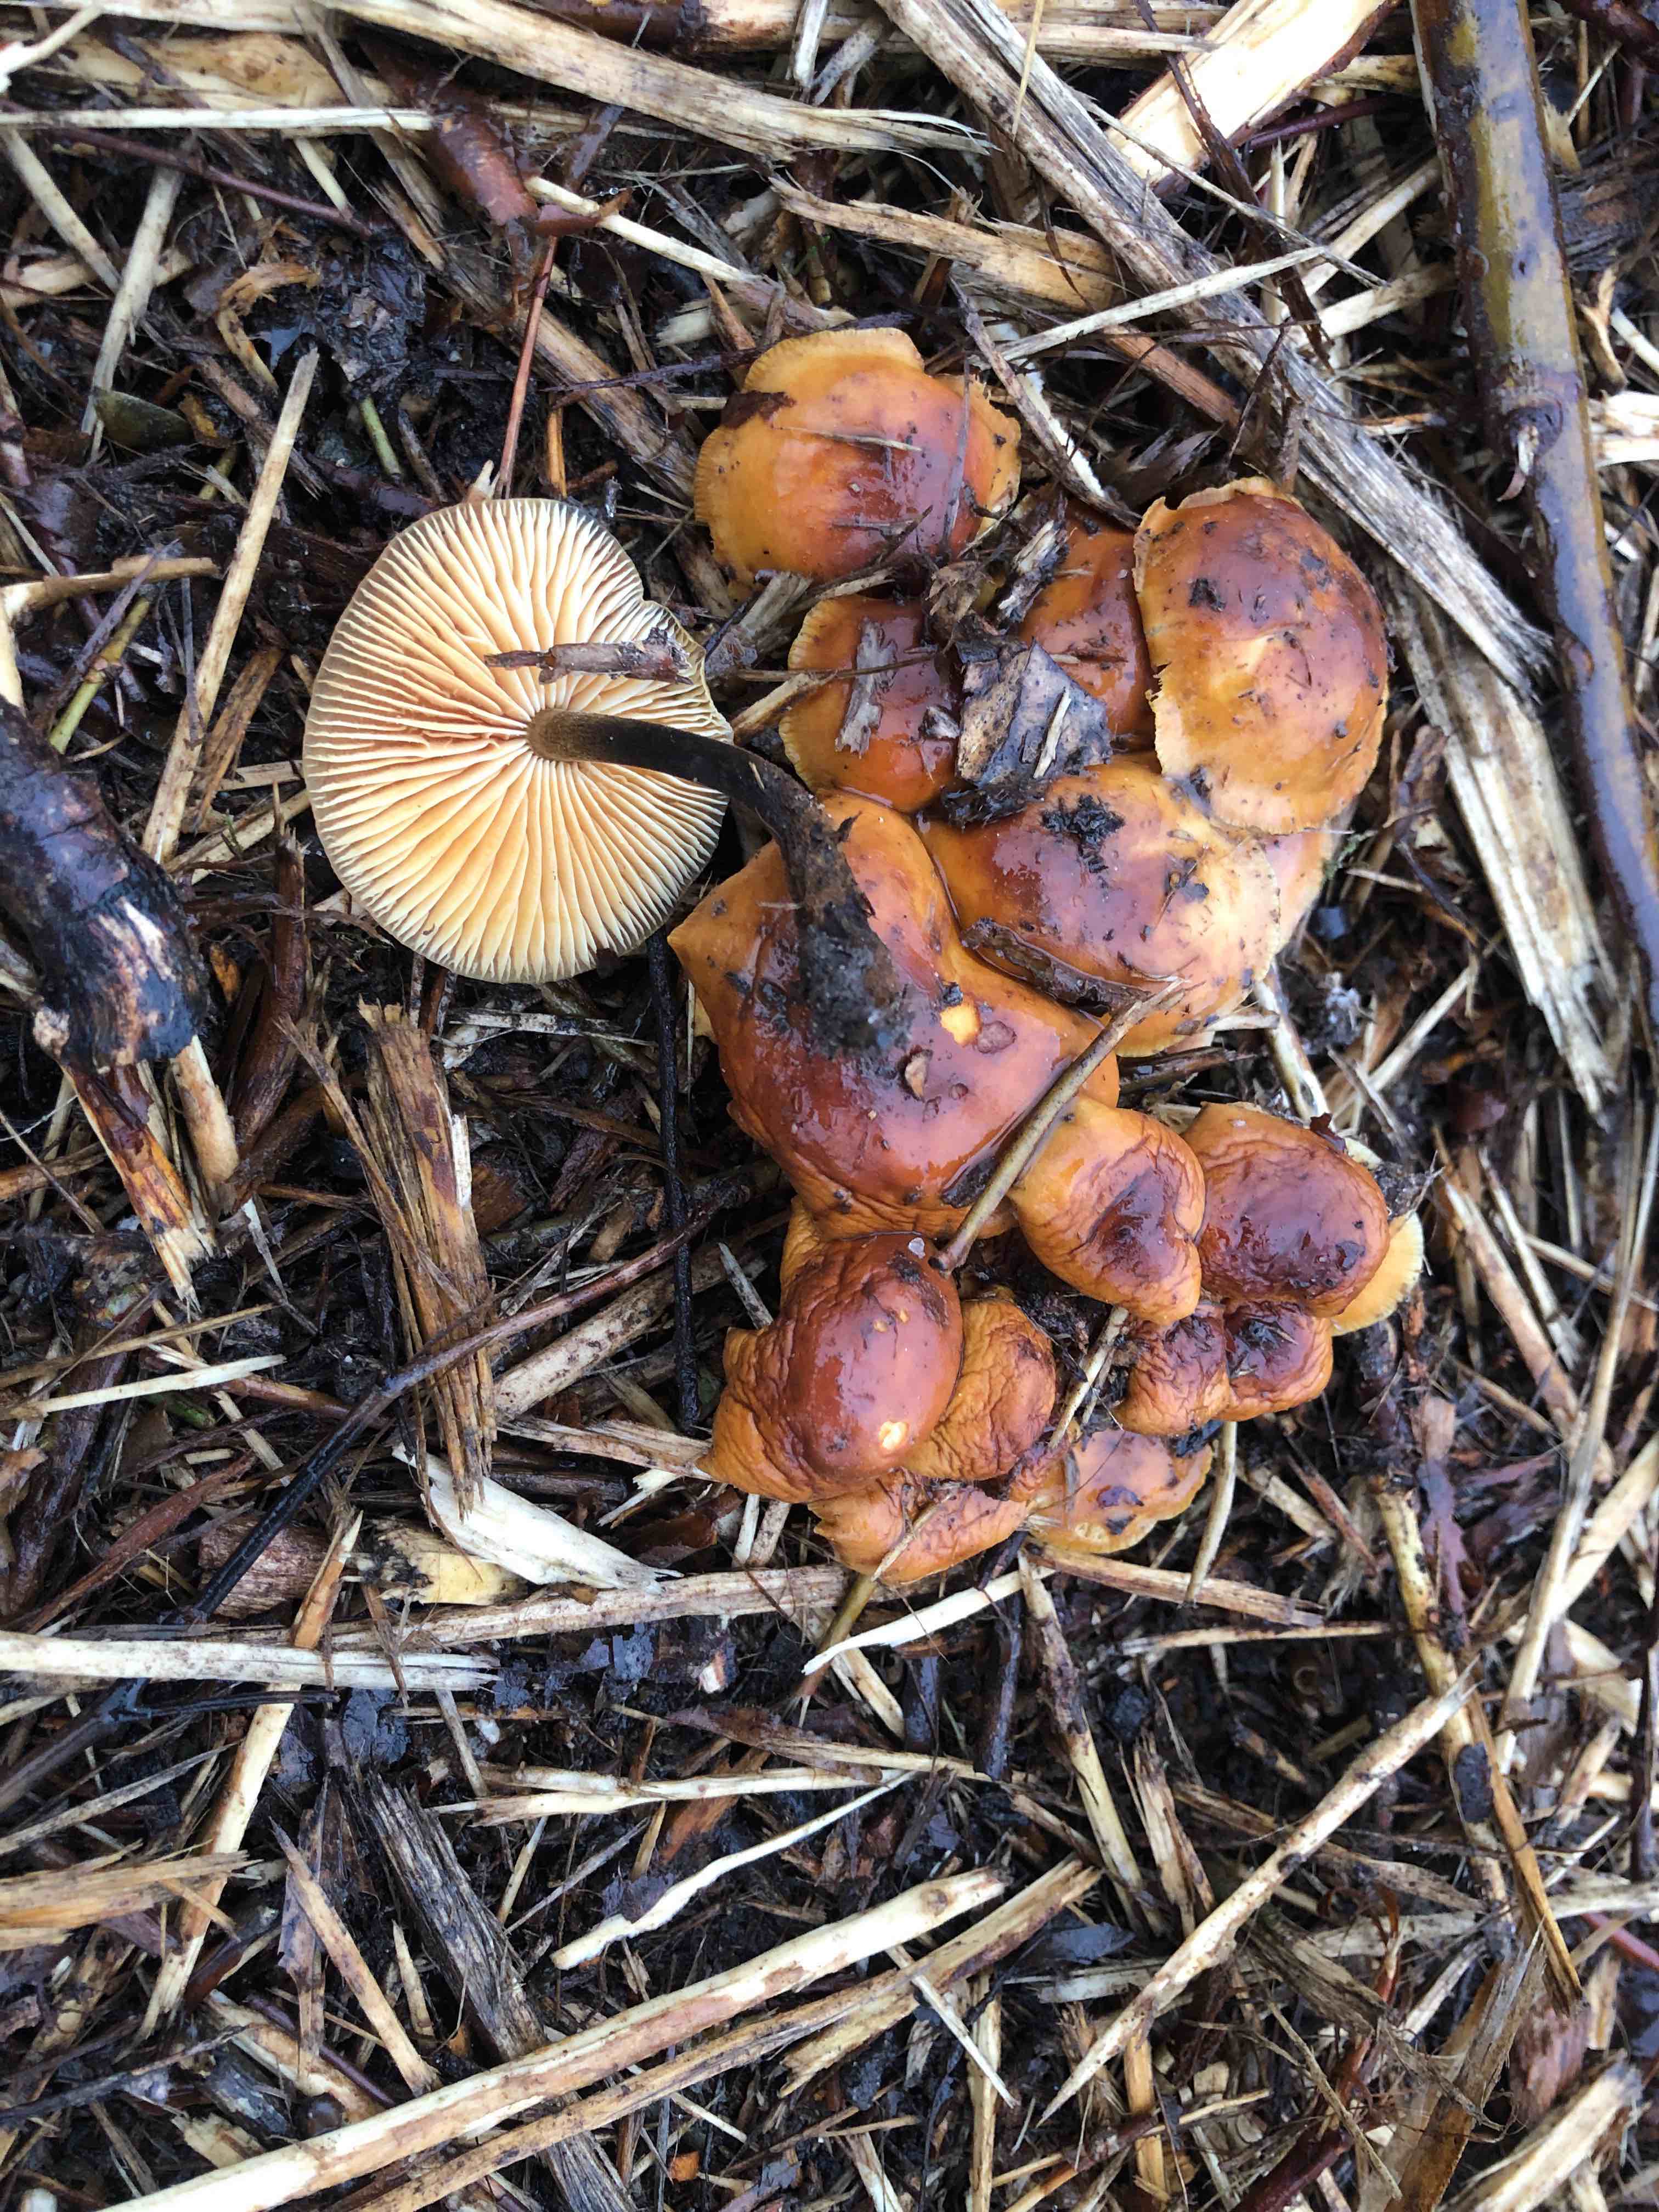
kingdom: Fungi
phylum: Basidiomycota
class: Agaricomycetes
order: Agaricales
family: Physalacriaceae
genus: Flammulina
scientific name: Flammulina
